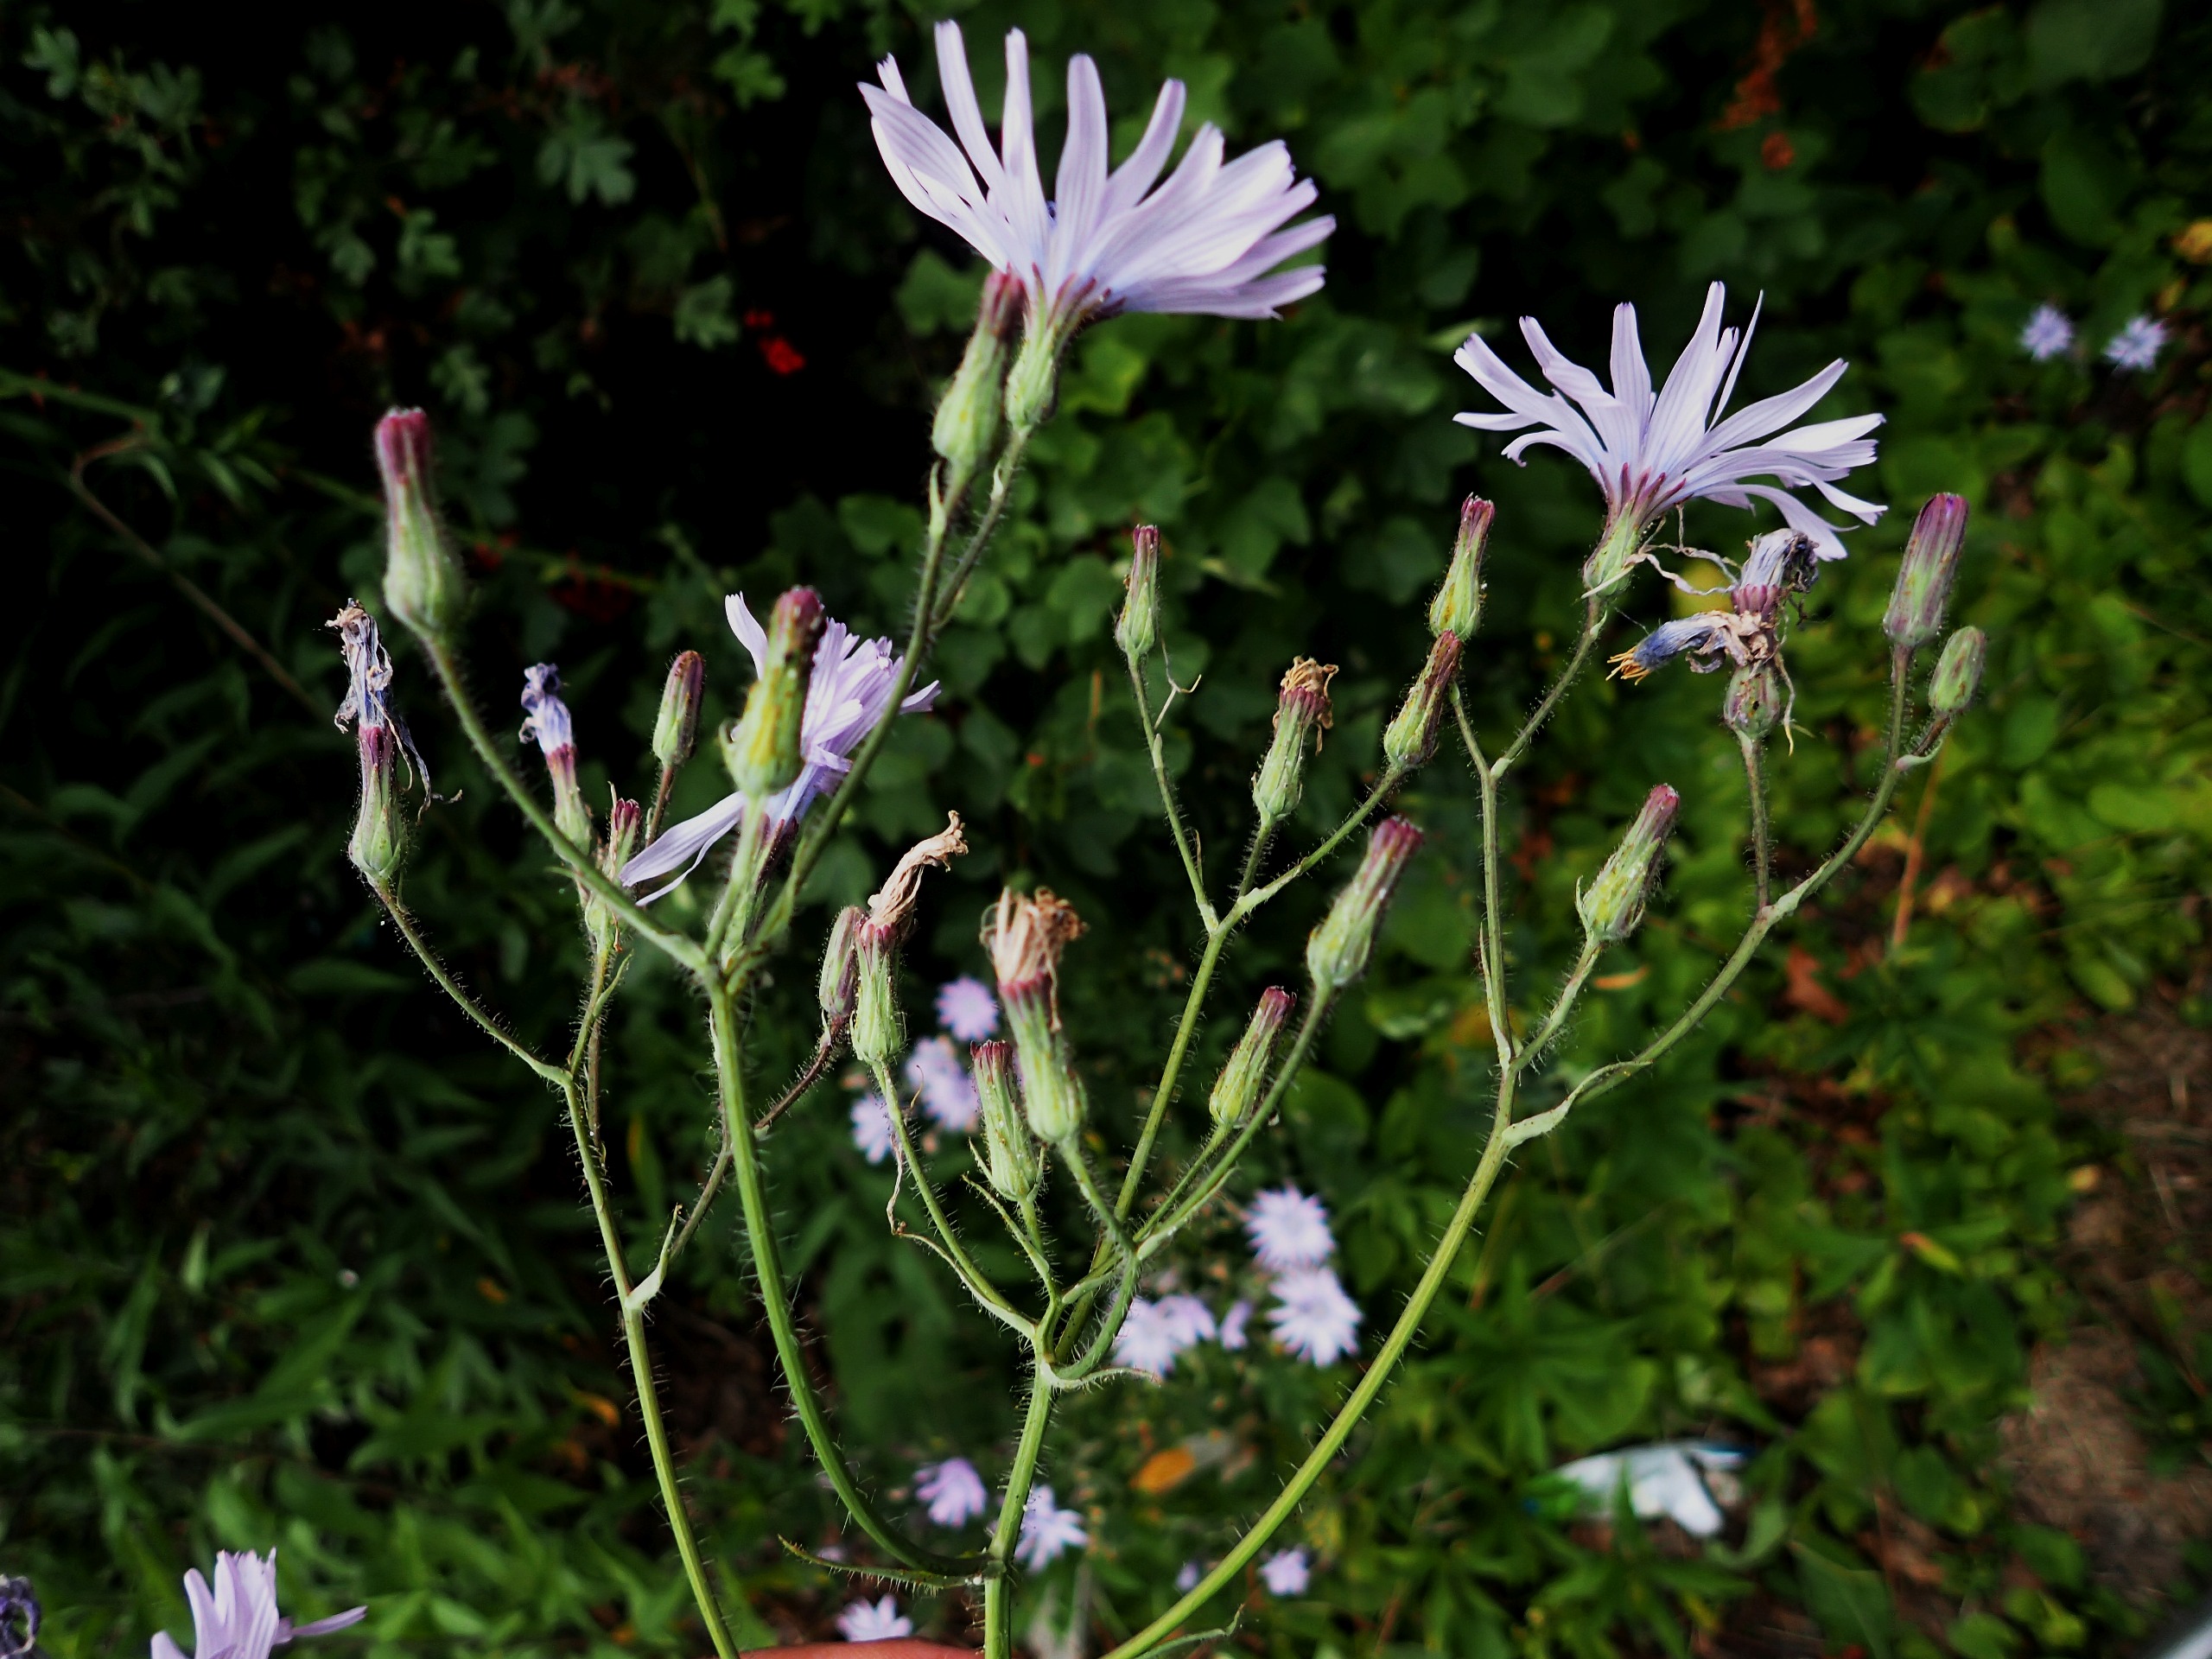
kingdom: Plantae
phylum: Tracheophyta
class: Magnoliopsida
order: Asterales
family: Asteraceae
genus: Lactuca
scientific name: Lactuca macrophylla
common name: Kæmpe-salat
